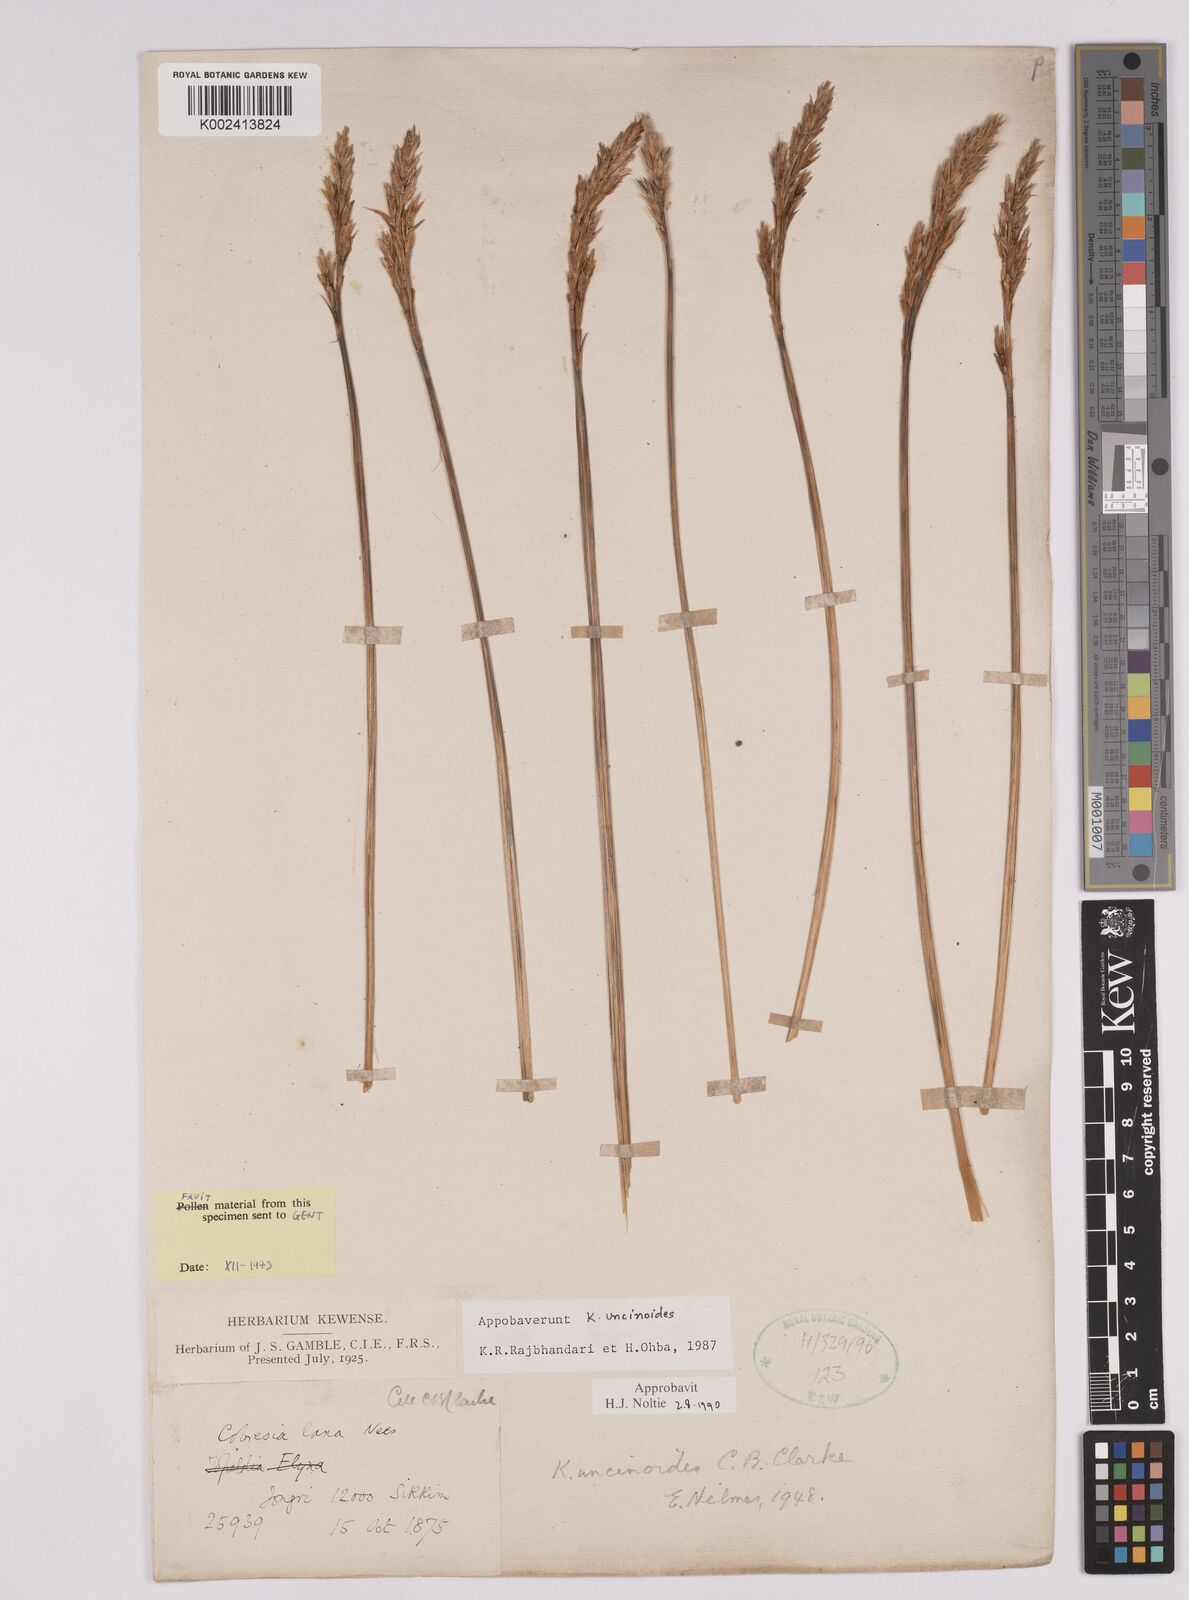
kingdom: Plantae
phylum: Tracheophyta
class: Liliopsida
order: Poales
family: Cyperaceae
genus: Carex
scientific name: Carex uncinioides
